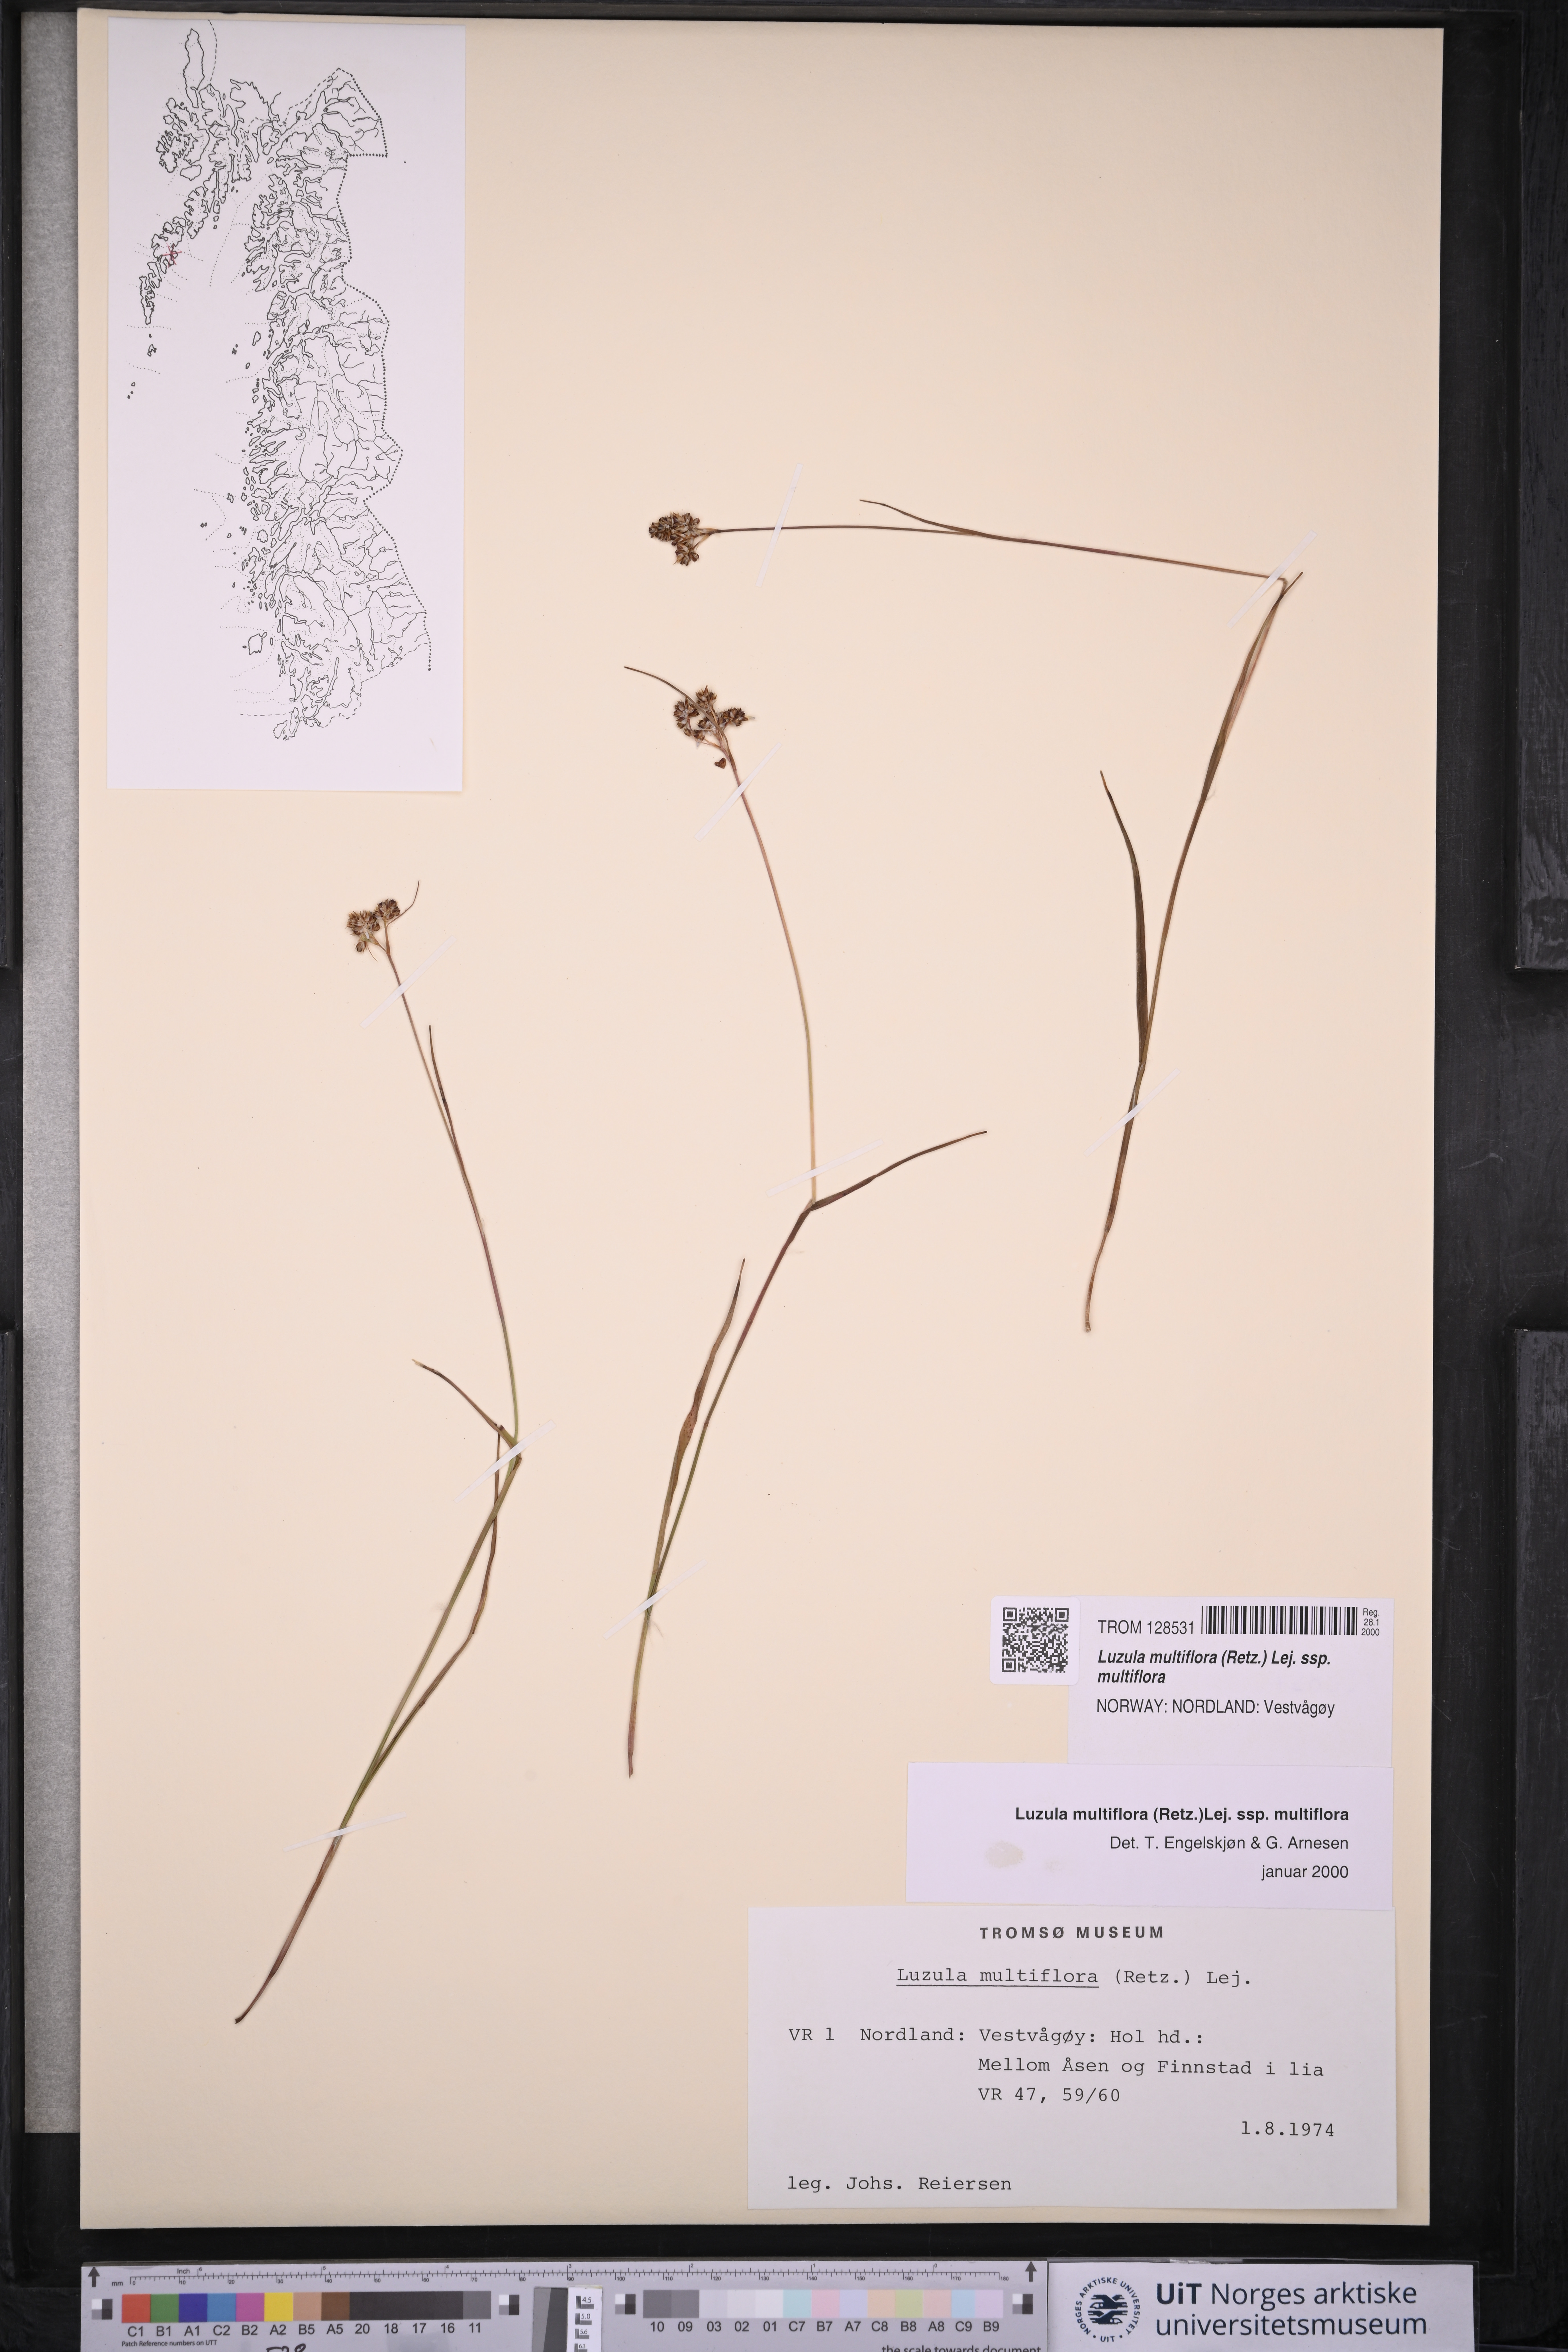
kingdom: Plantae
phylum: Tracheophyta
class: Liliopsida
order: Poales
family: Juncaceae
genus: Luzula
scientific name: Luzula multiflora
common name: Heath wood-rush
